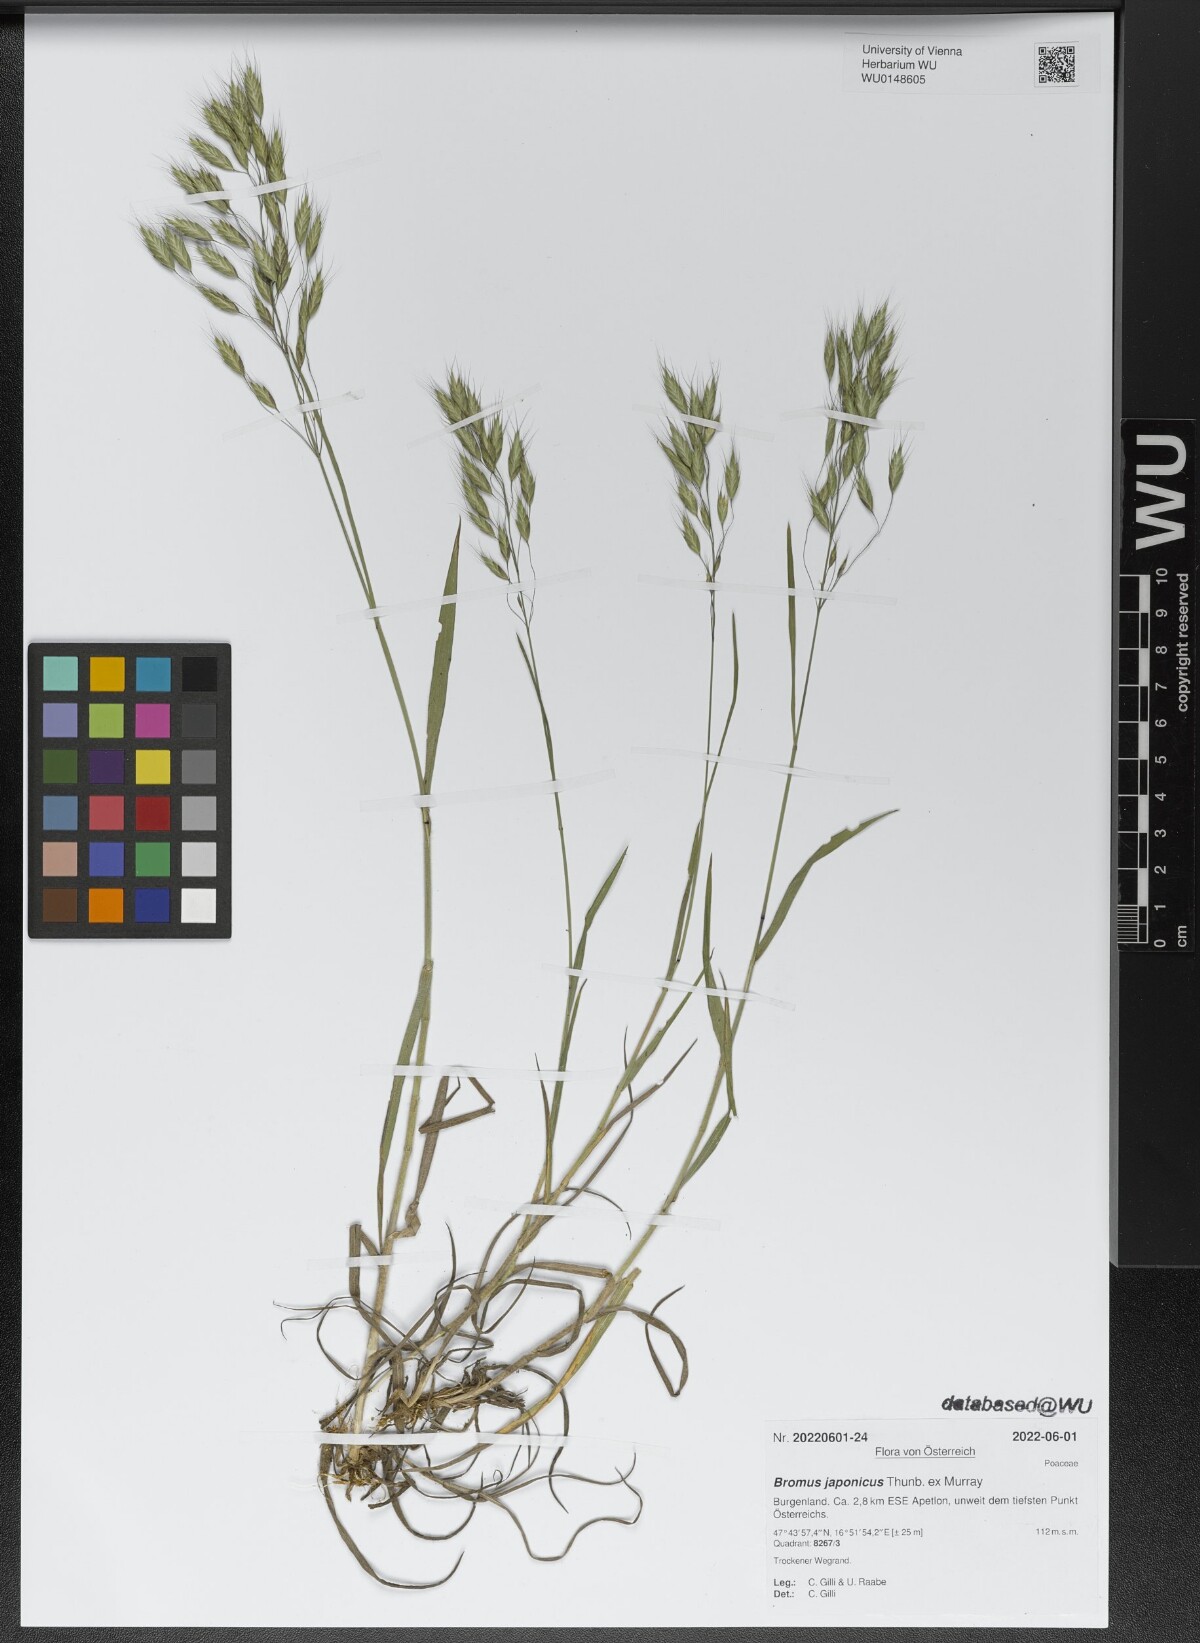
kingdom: Plantae
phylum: Tracheophyta
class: Liliopsida
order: Poales
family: Poaceae
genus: Bromus
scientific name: Bromus japonicus
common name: Japanese brome
